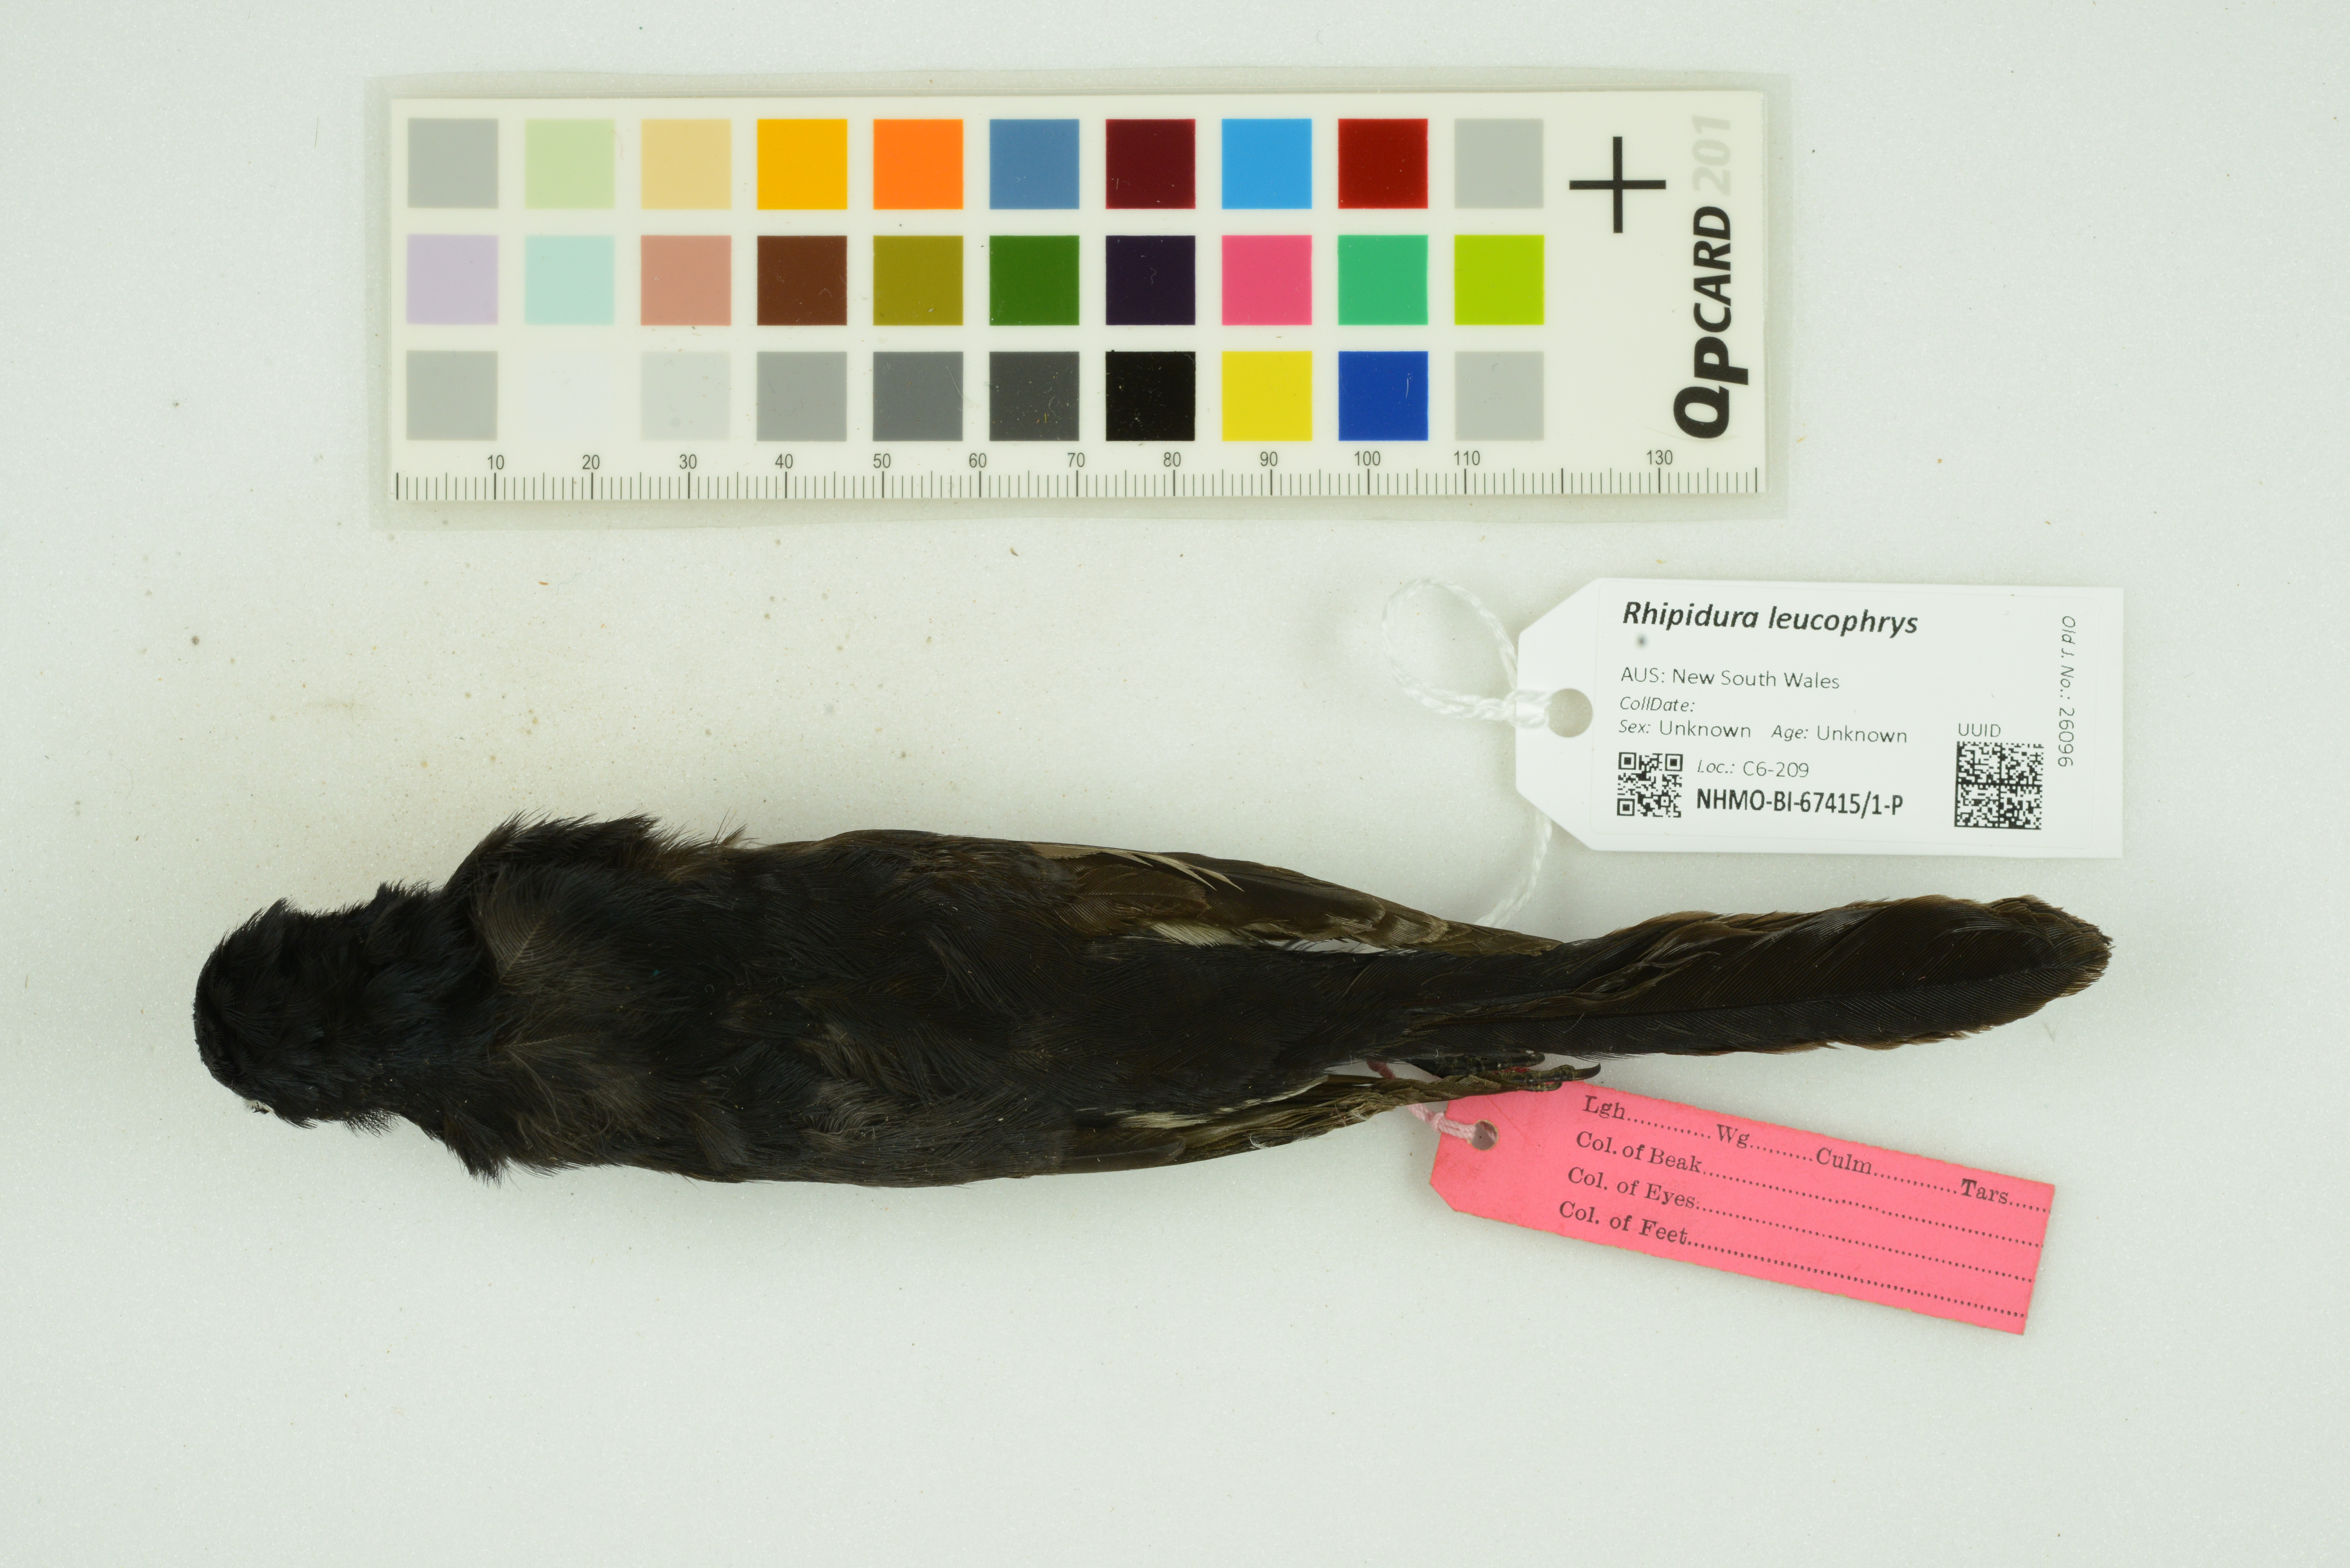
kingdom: Animalia
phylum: Chordata
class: Aves
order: Passeriformes
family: Rhipiduridae
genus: Rhipidura
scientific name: Rhipidura leucophrys
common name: Willie wagtail
